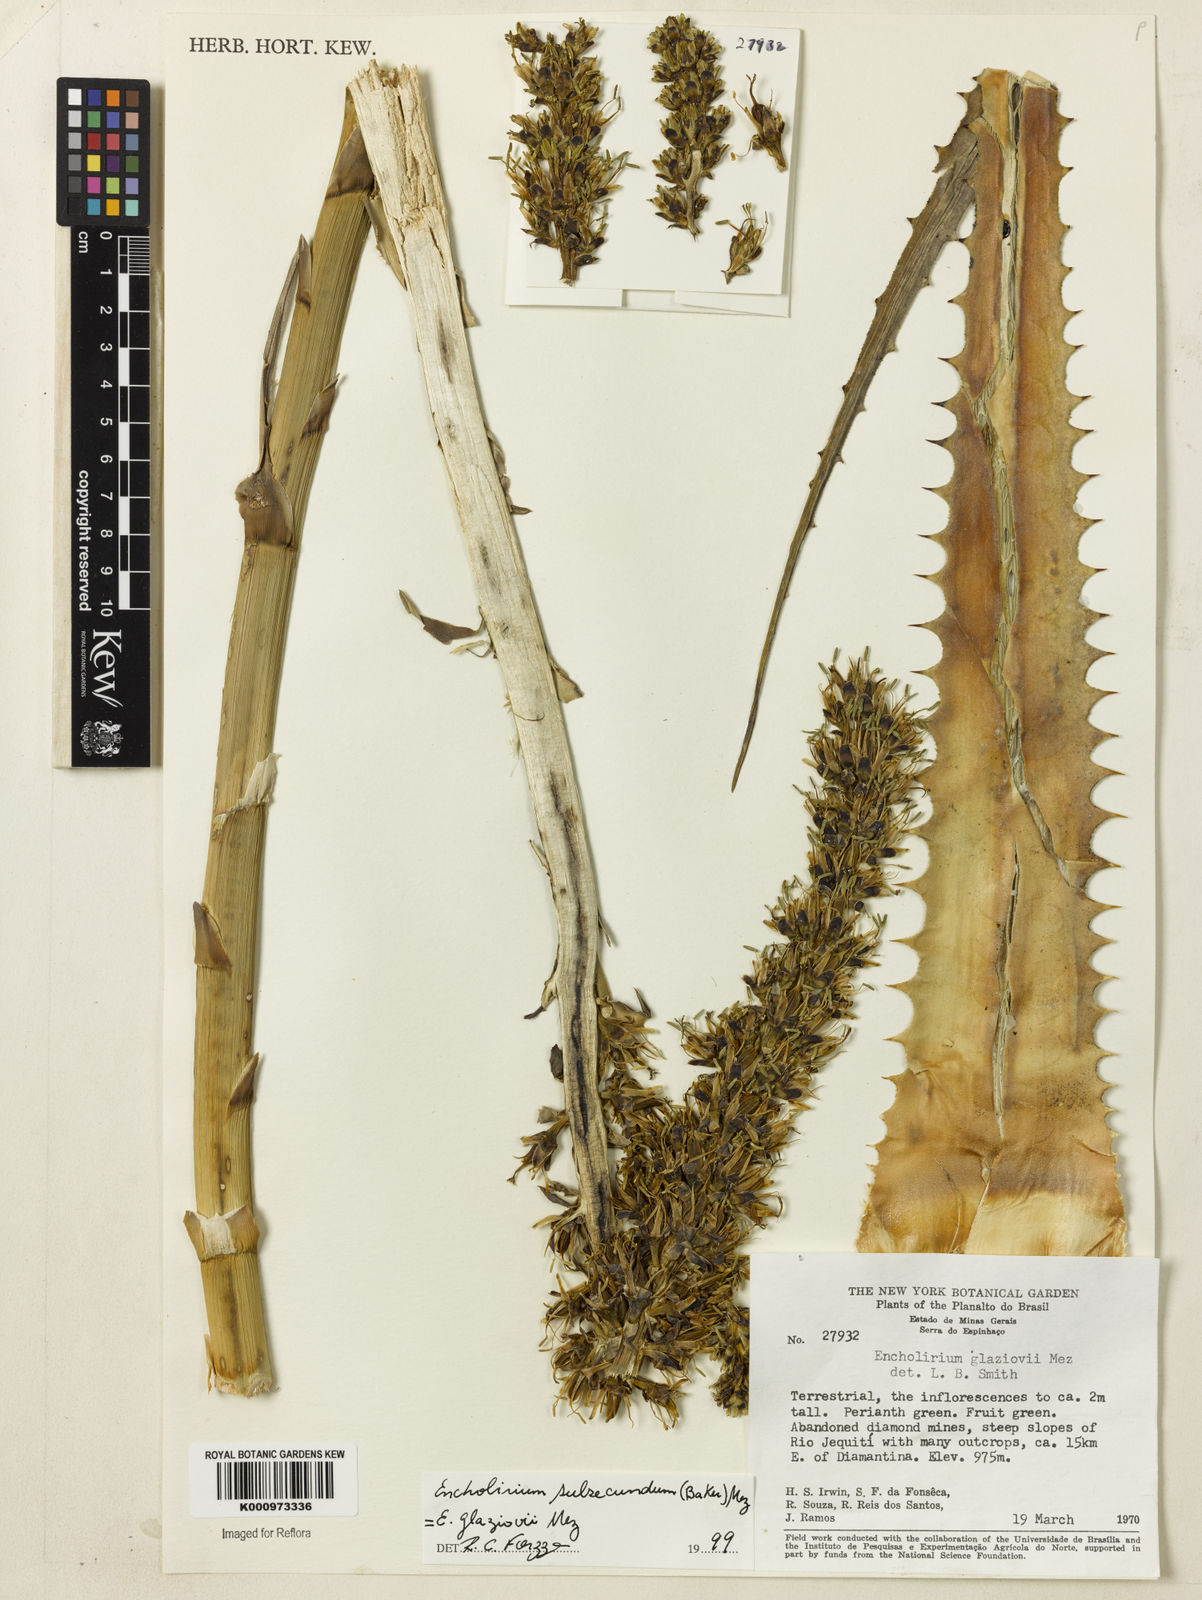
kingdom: Plantae
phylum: Tracheophyta
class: Liliopsida
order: Poales
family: Bromeliaceae
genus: Encholirium
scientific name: Encholirium subsecundum
